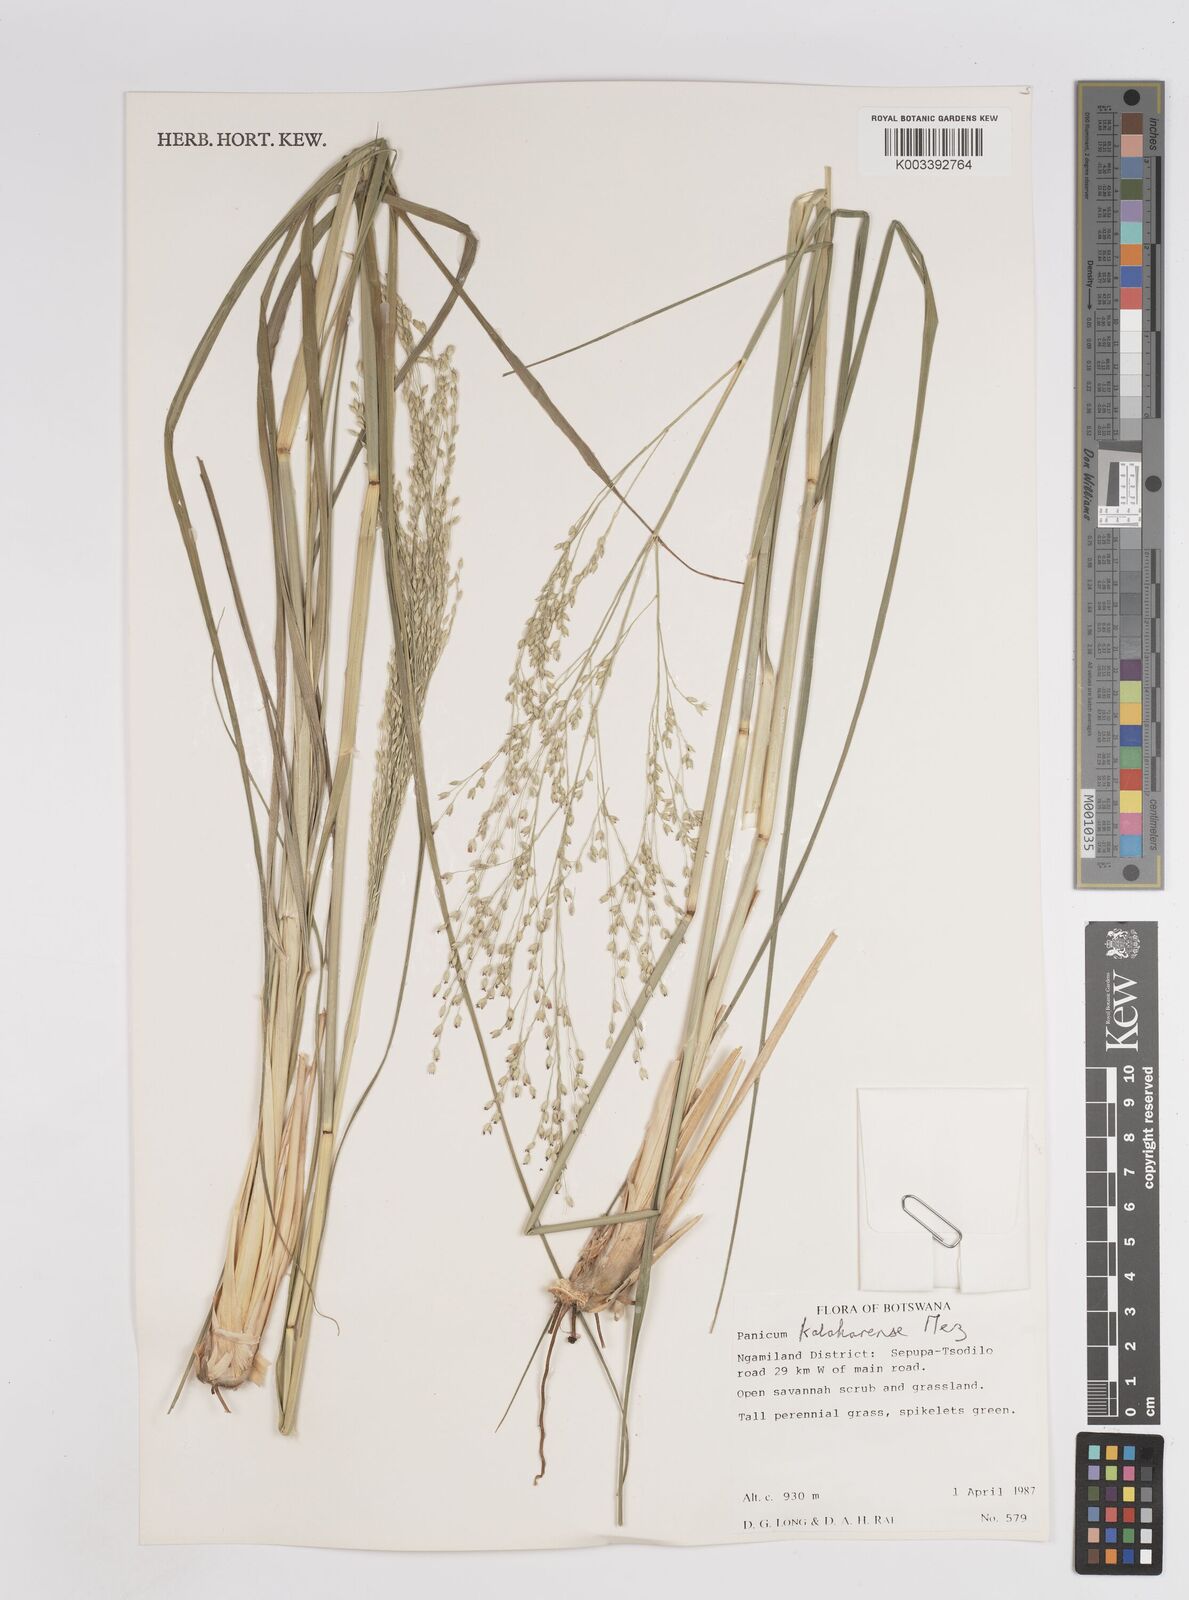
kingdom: Plantae
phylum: Tracheophyta
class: Liliopsida
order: Poales
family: Poaceae
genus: Panicum
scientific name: Panicum kalaharense
